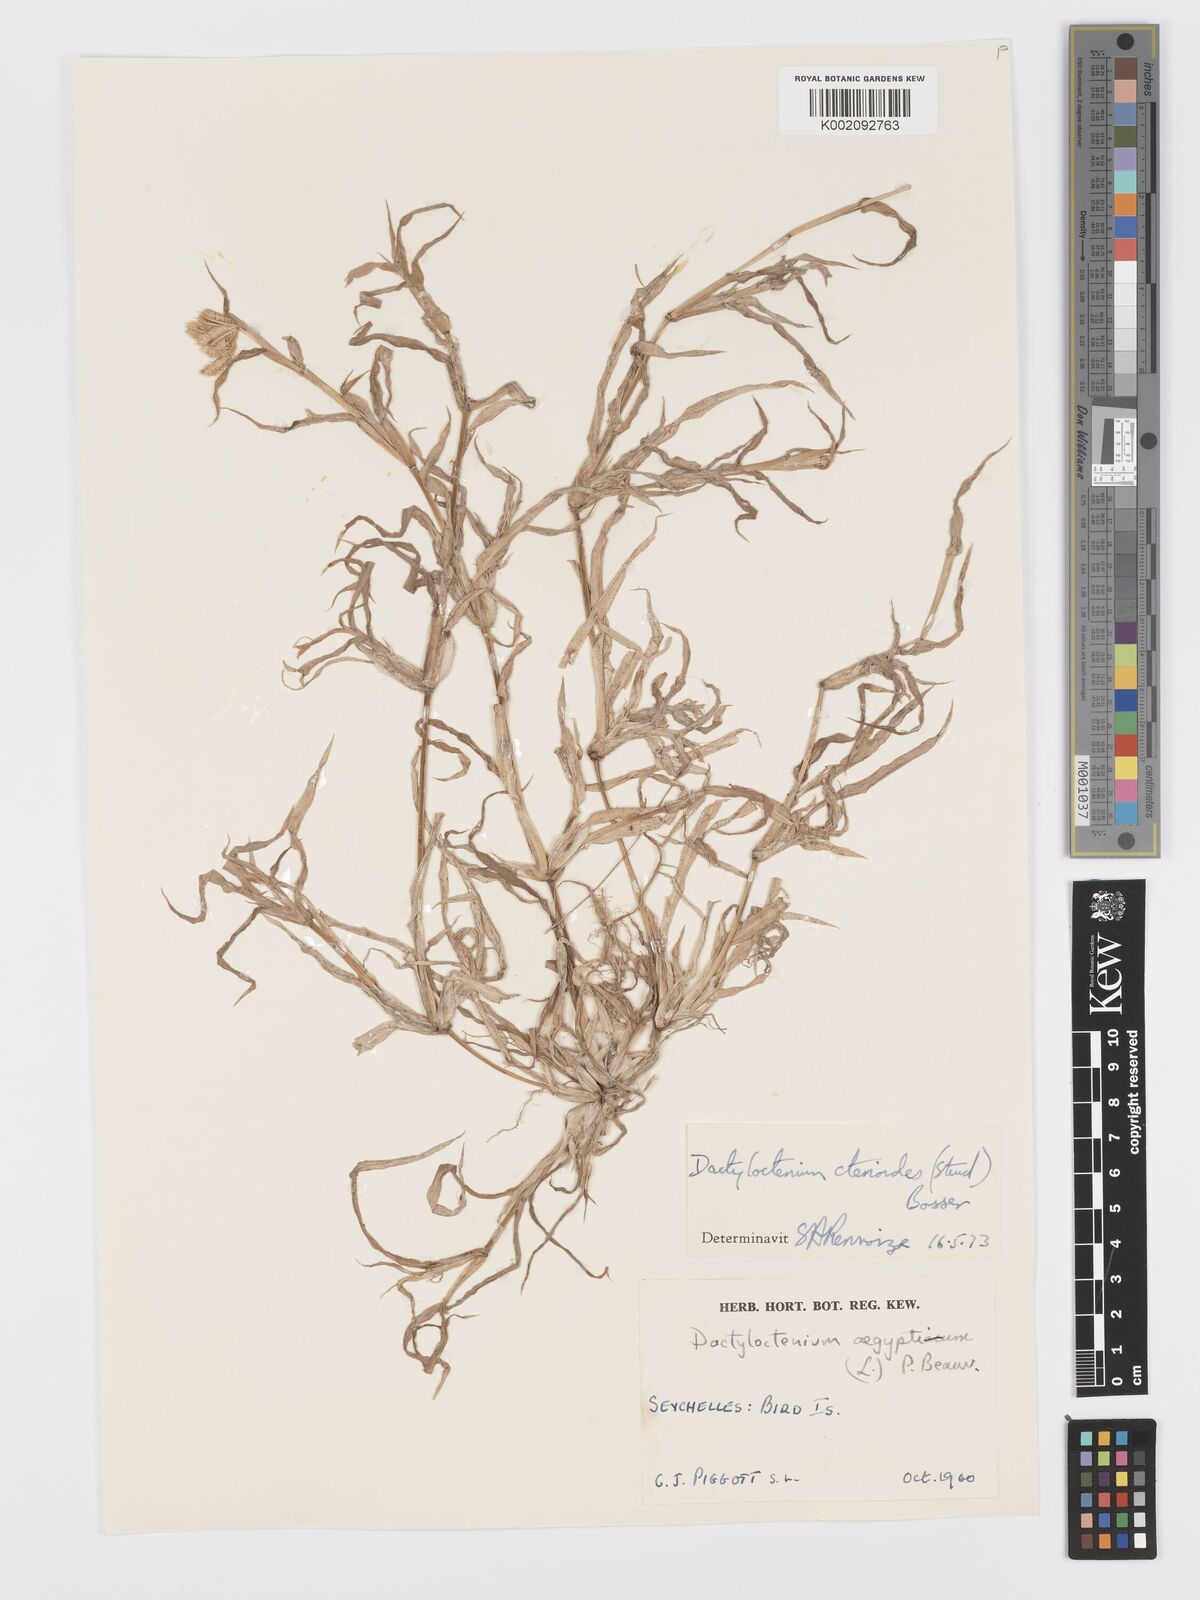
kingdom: Plantae
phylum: Tracheophyta
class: Liliopsida
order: Poales
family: Poaceae
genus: Dactyloctenium
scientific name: Dactyloctenium ctenoides
